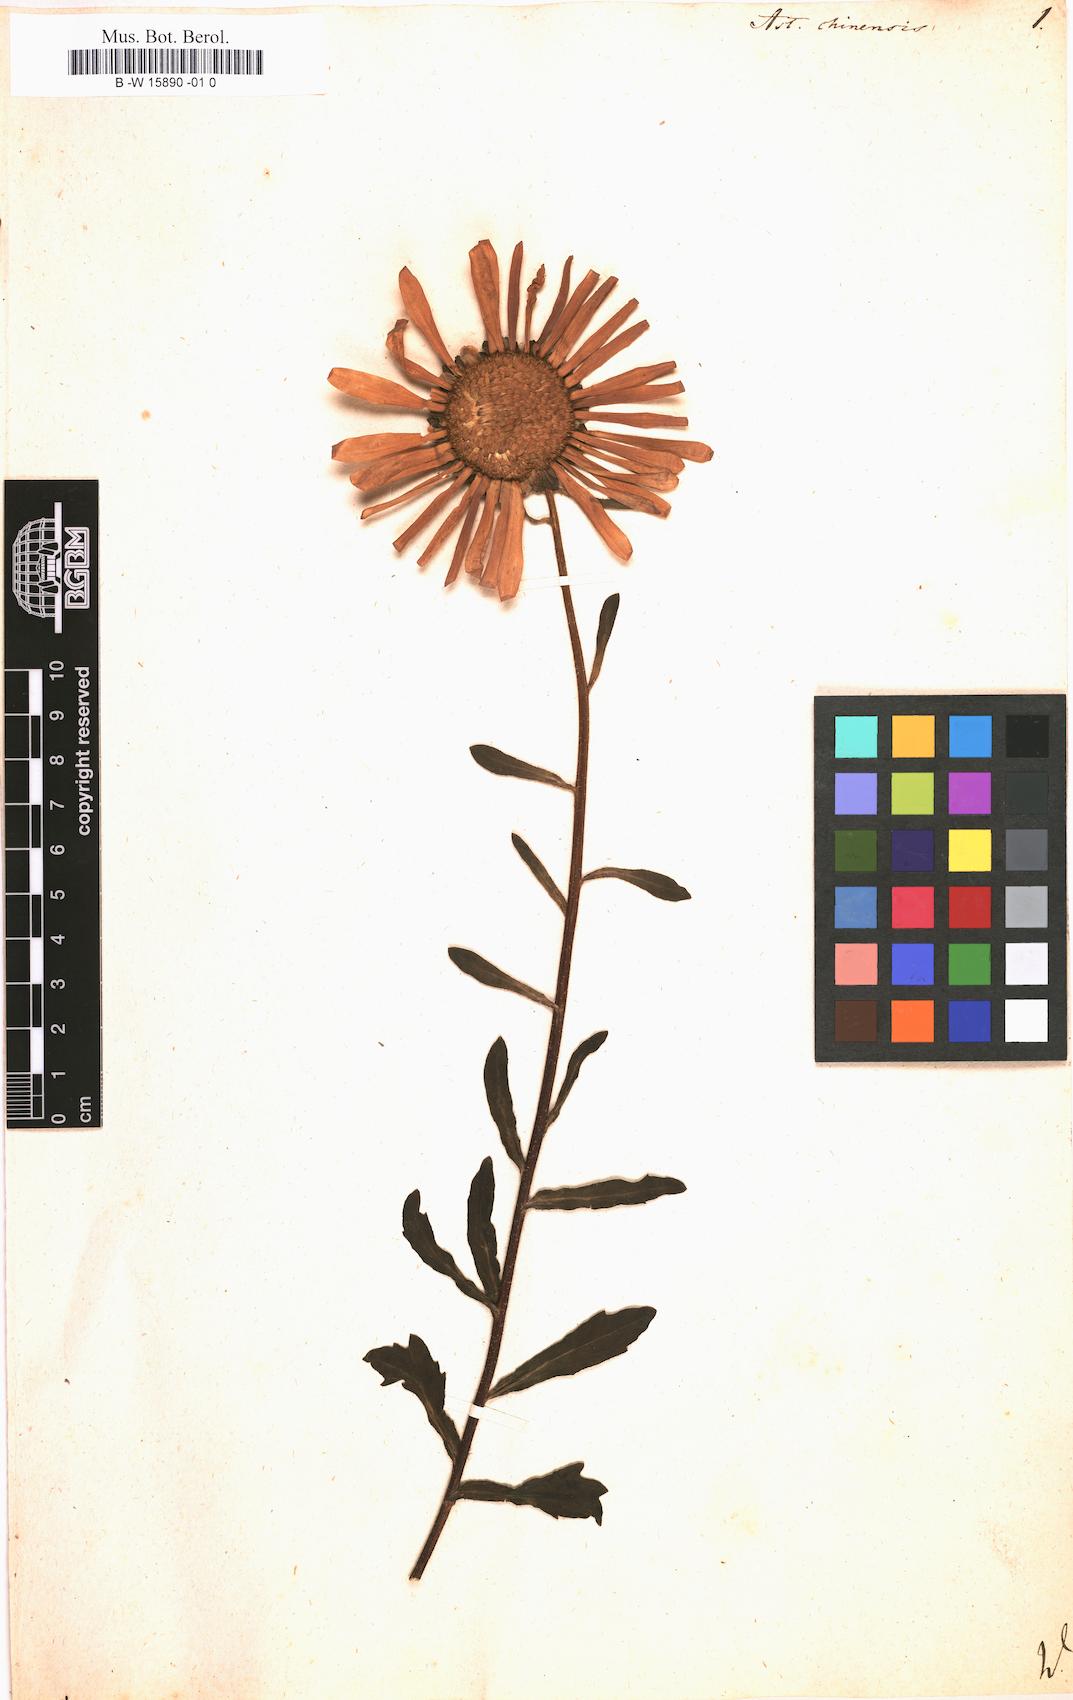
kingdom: Plantae
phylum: Tracheophyta
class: Magnoliopsida
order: Asterales
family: Asteraceae
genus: Callistephus
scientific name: Callistephus chinensis
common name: China aster
